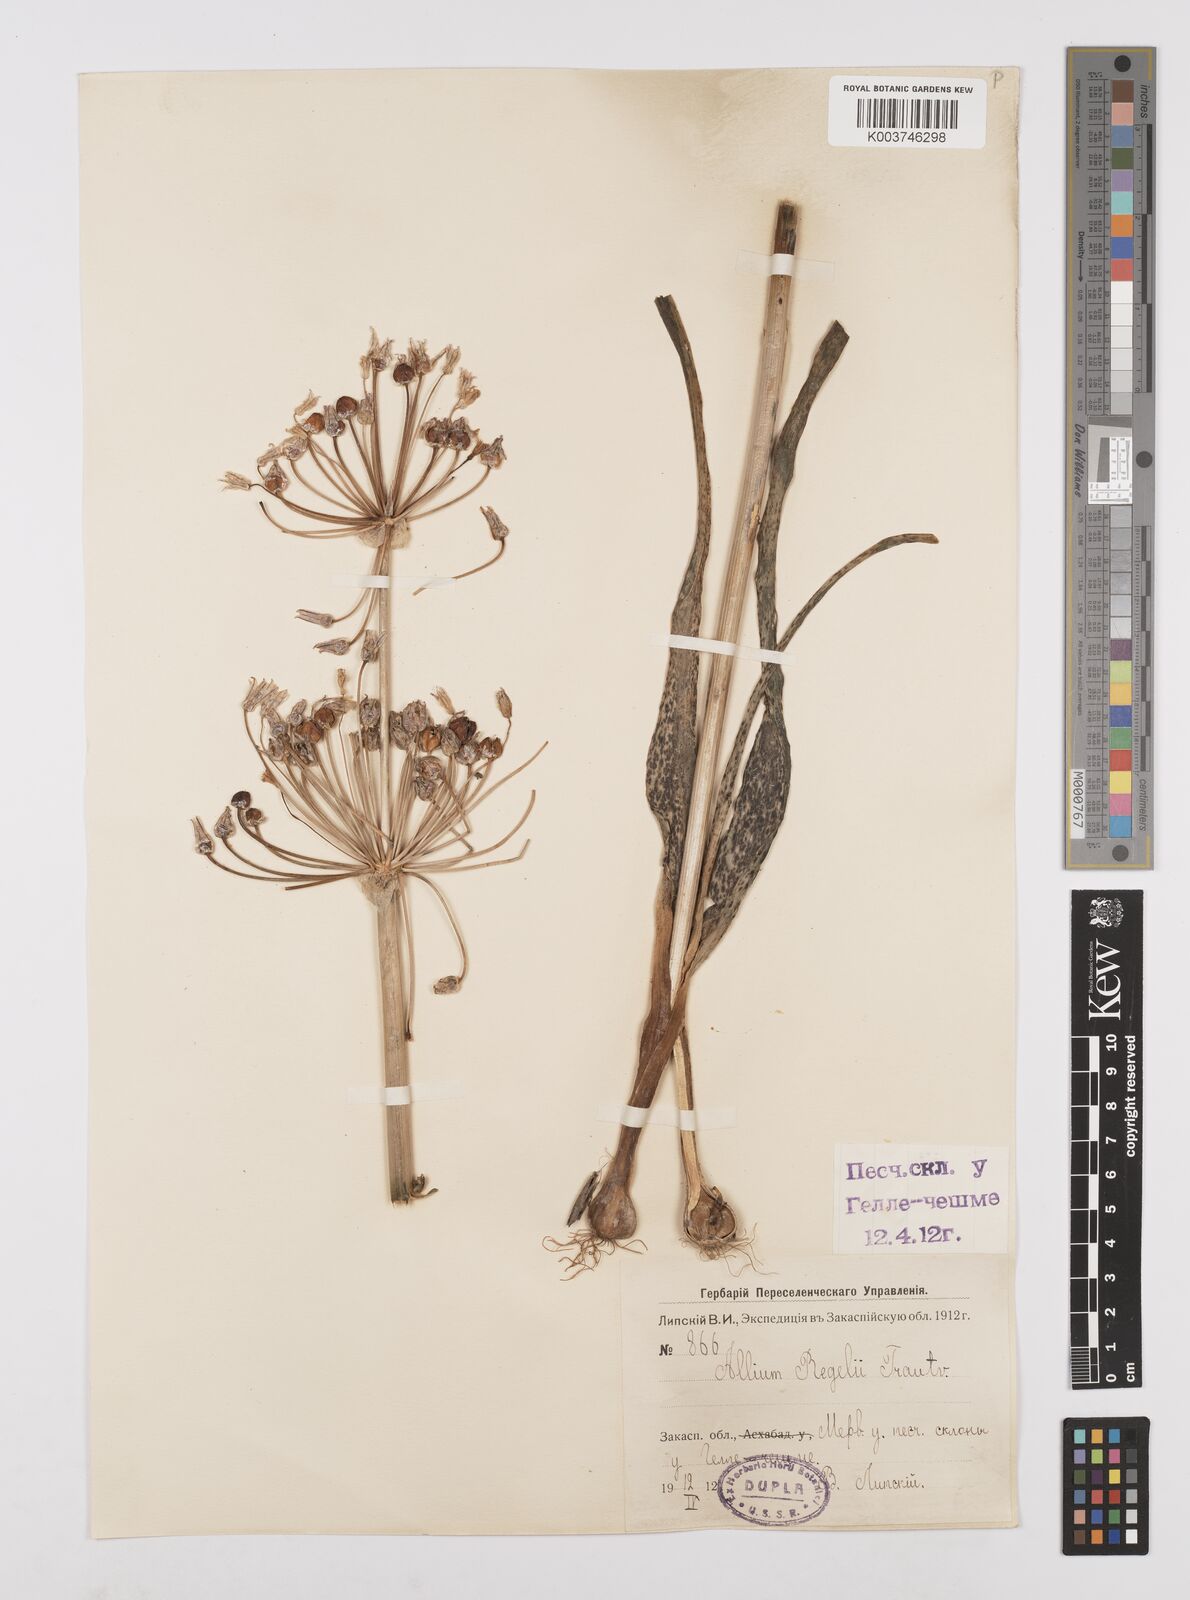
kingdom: Plantae
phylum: Tracheophyta
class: Liliopsida
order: Asparagales
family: Amaryllidaceae
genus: Allium
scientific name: Allium regelii
